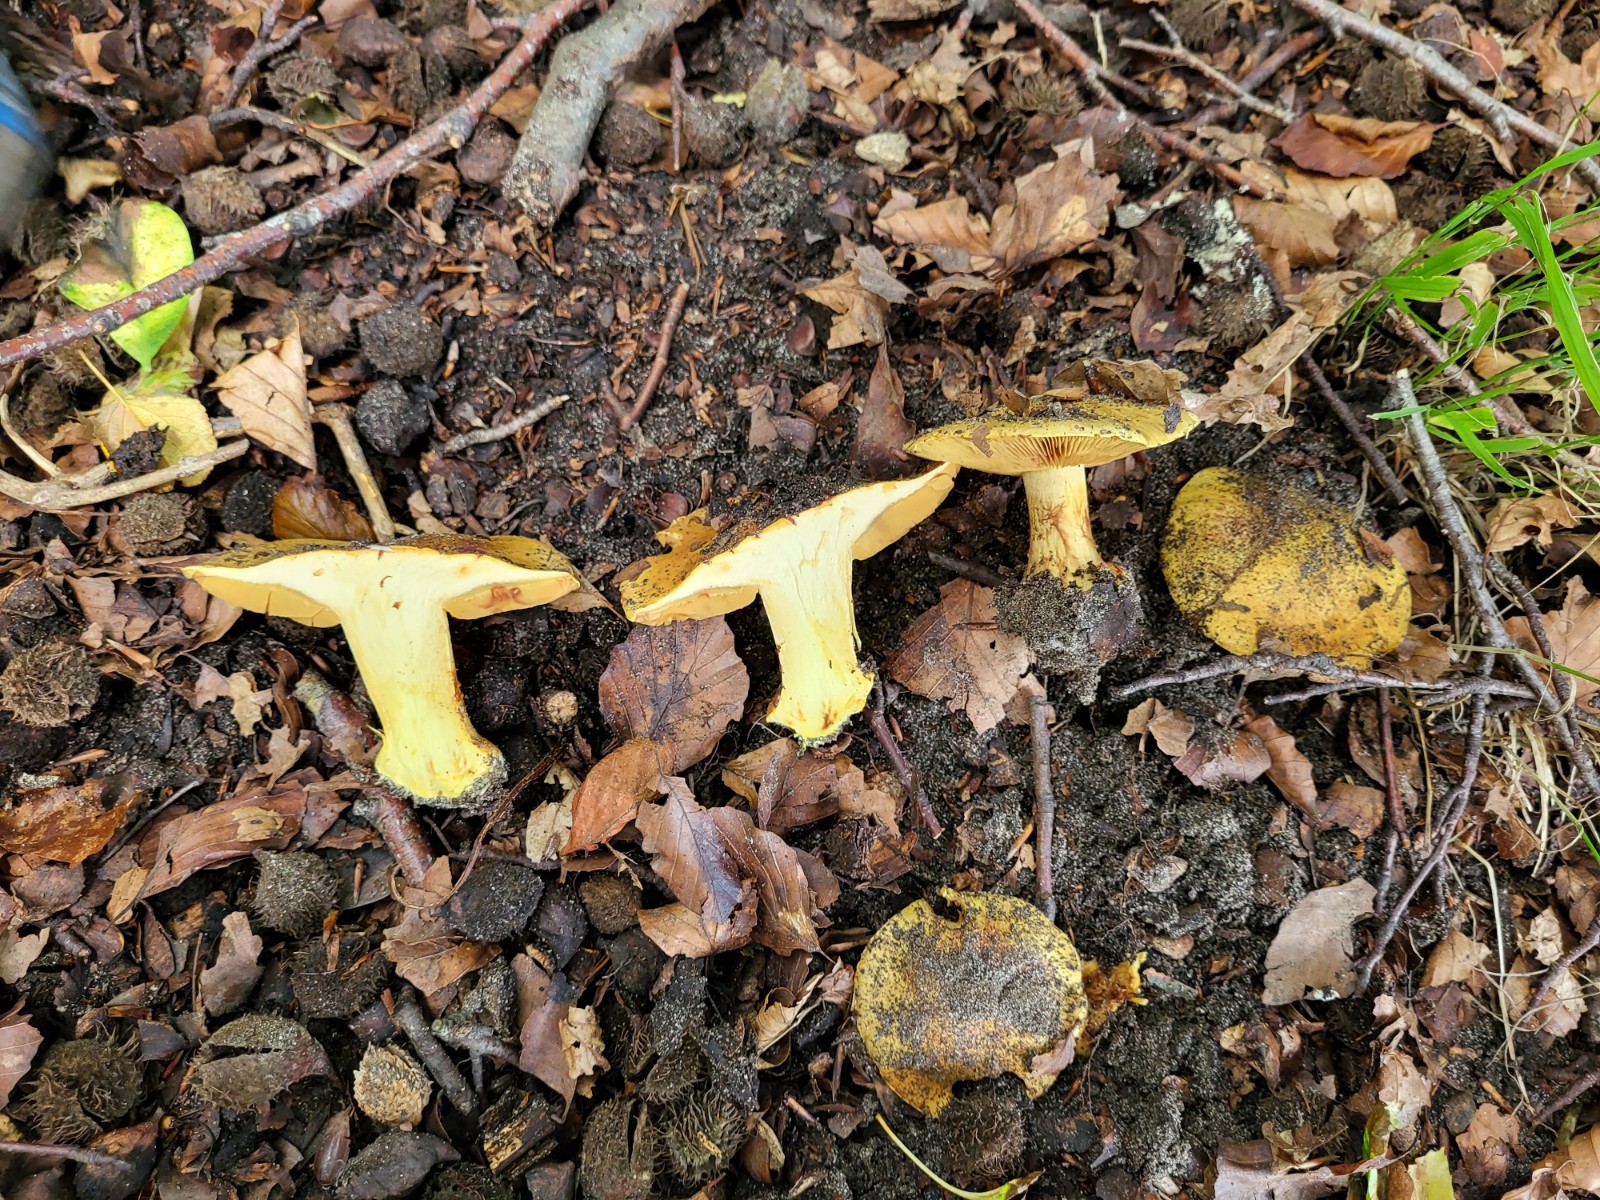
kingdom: Fungi
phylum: Basidiomycota
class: Agaricomycetes
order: Agaricales
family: Cortinariaceae
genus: Calonarius
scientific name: Calonarius splendens
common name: sirene-slørhat
